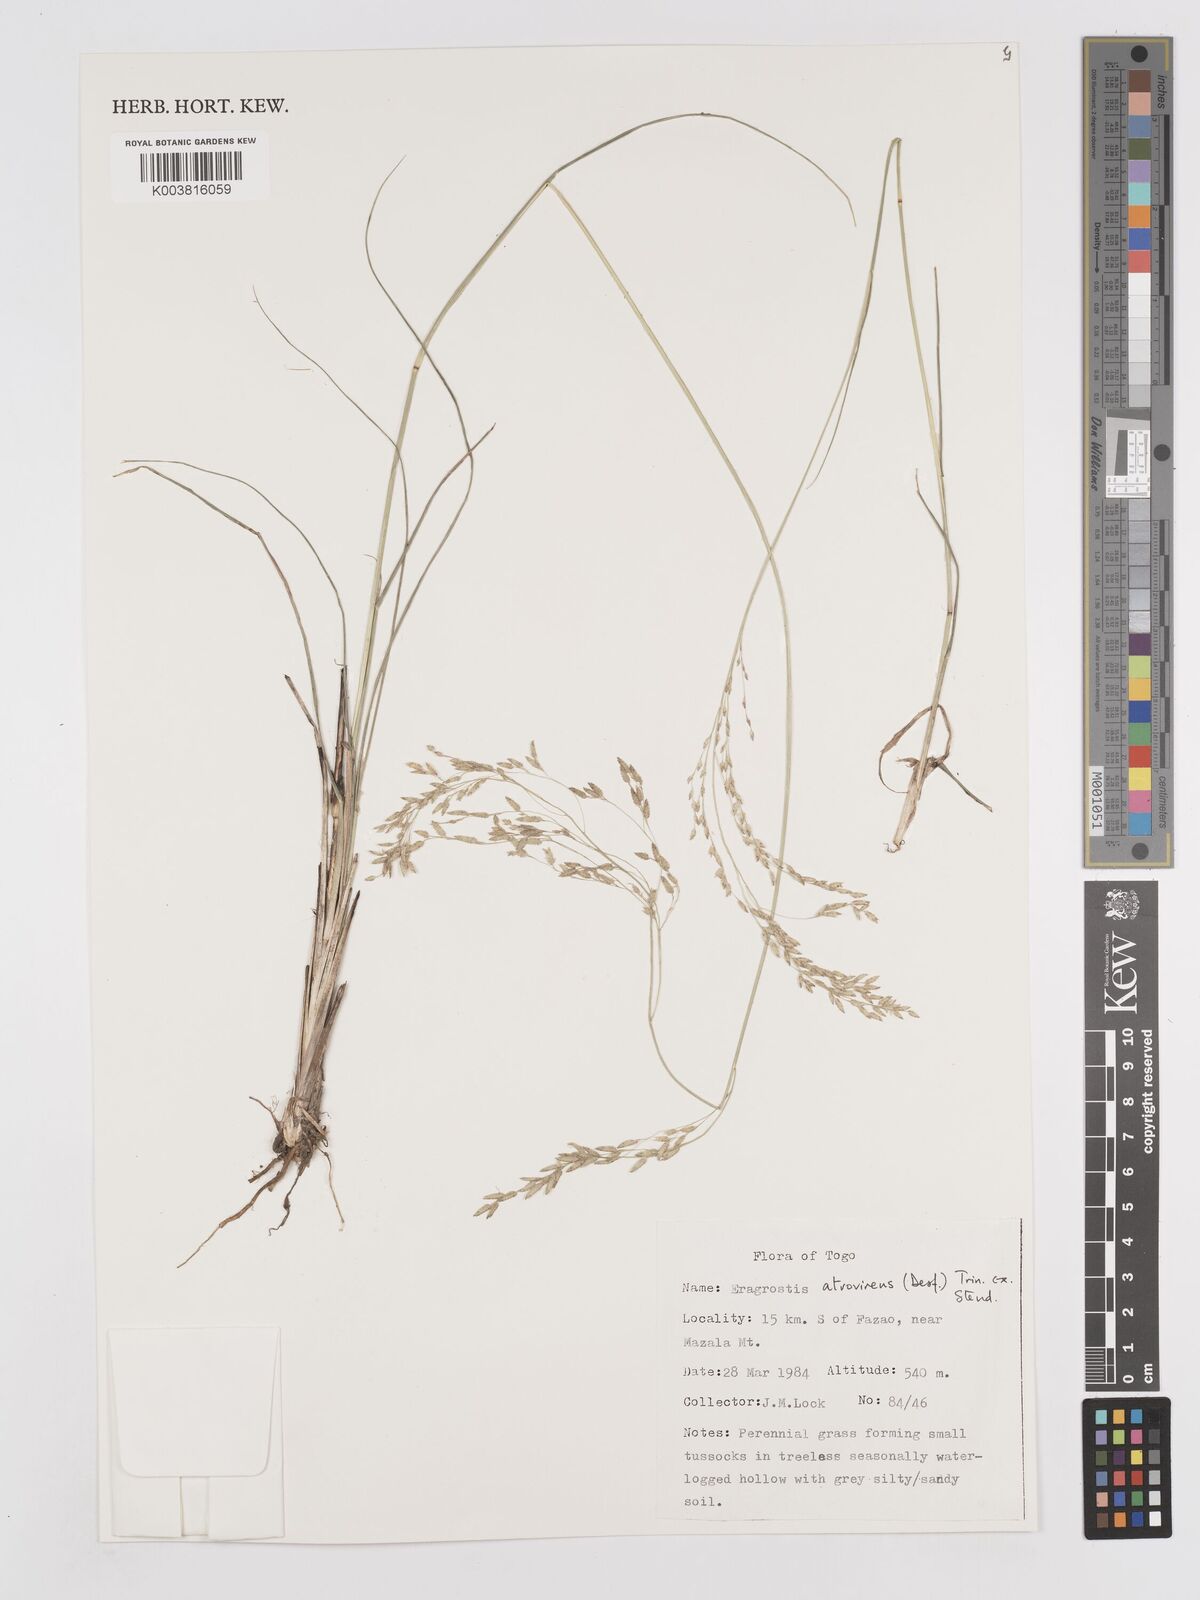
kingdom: Plantae
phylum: Tracheophyta
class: Liliopsida
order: Poales
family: Poaceae
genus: Eragrostis
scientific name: Eragrostis atrovirens
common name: Thalia lovegrass
